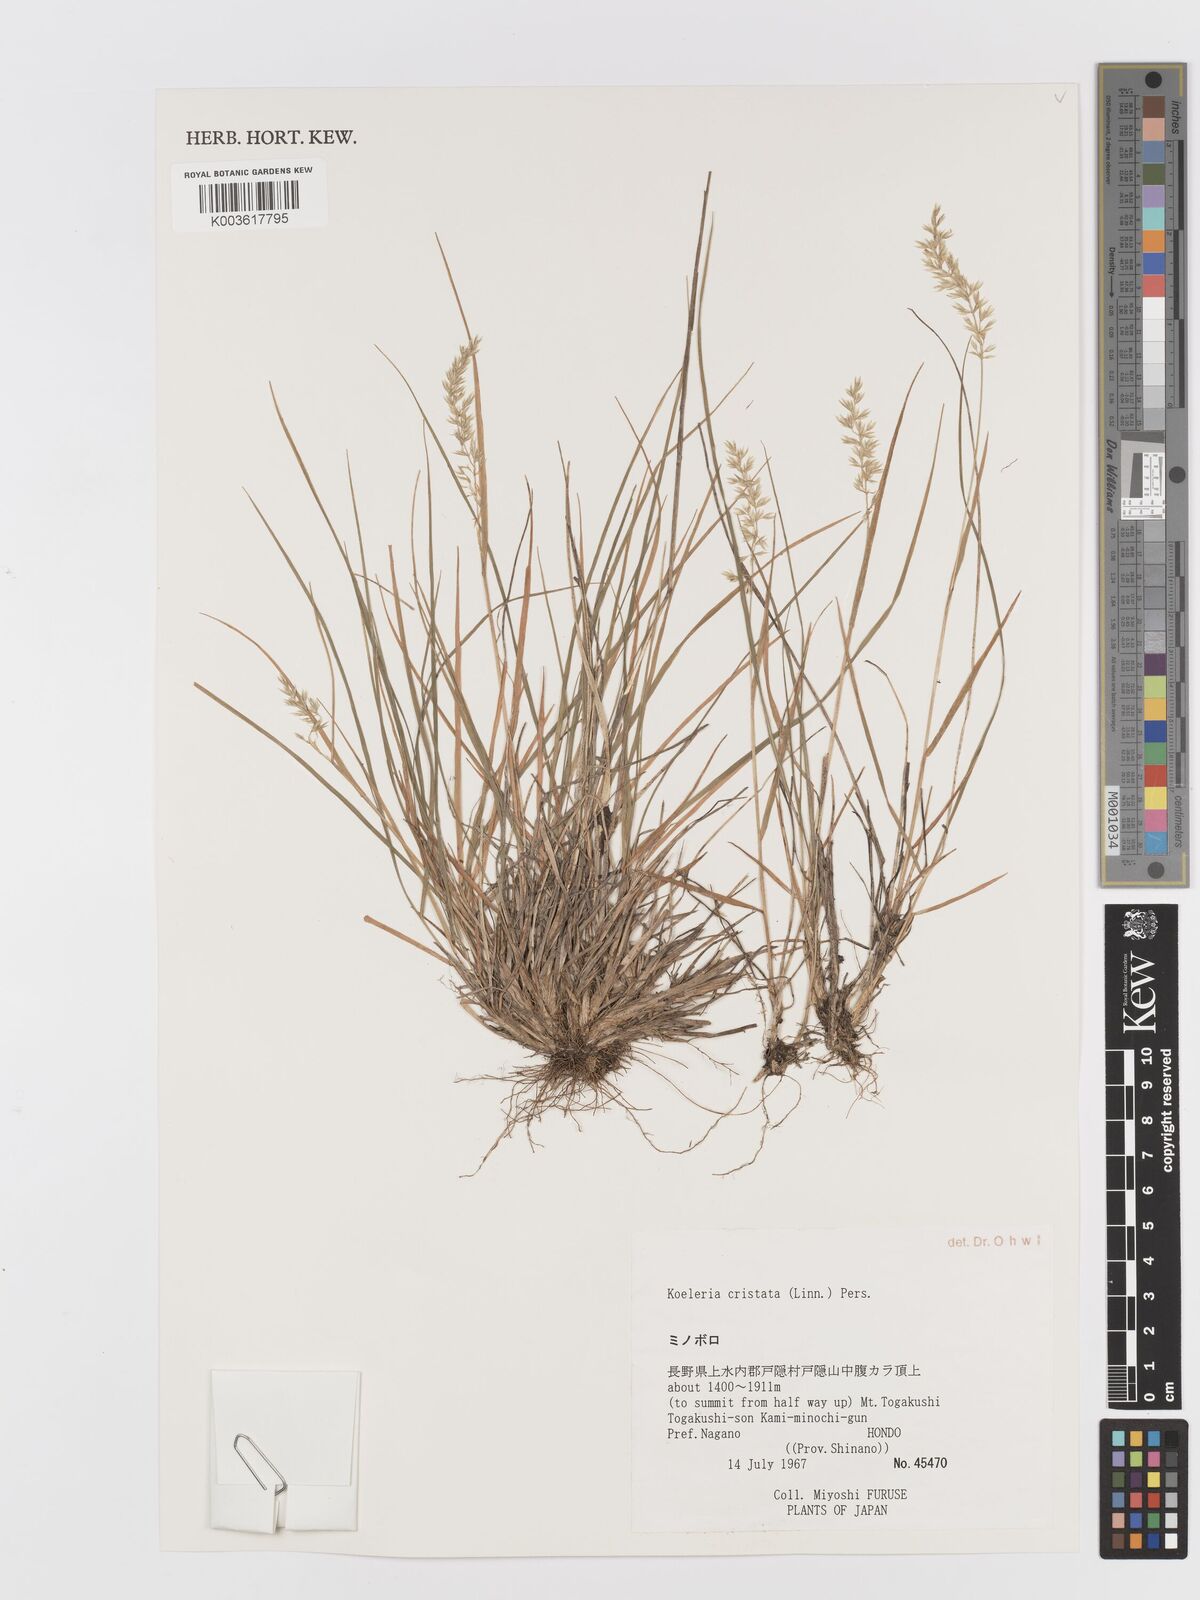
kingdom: Plantae
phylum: Tracheophyta
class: Liliopsida
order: Poales
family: Poaceae
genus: Koeleria
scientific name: Koeleria macrantha
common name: Crested hair-grass
